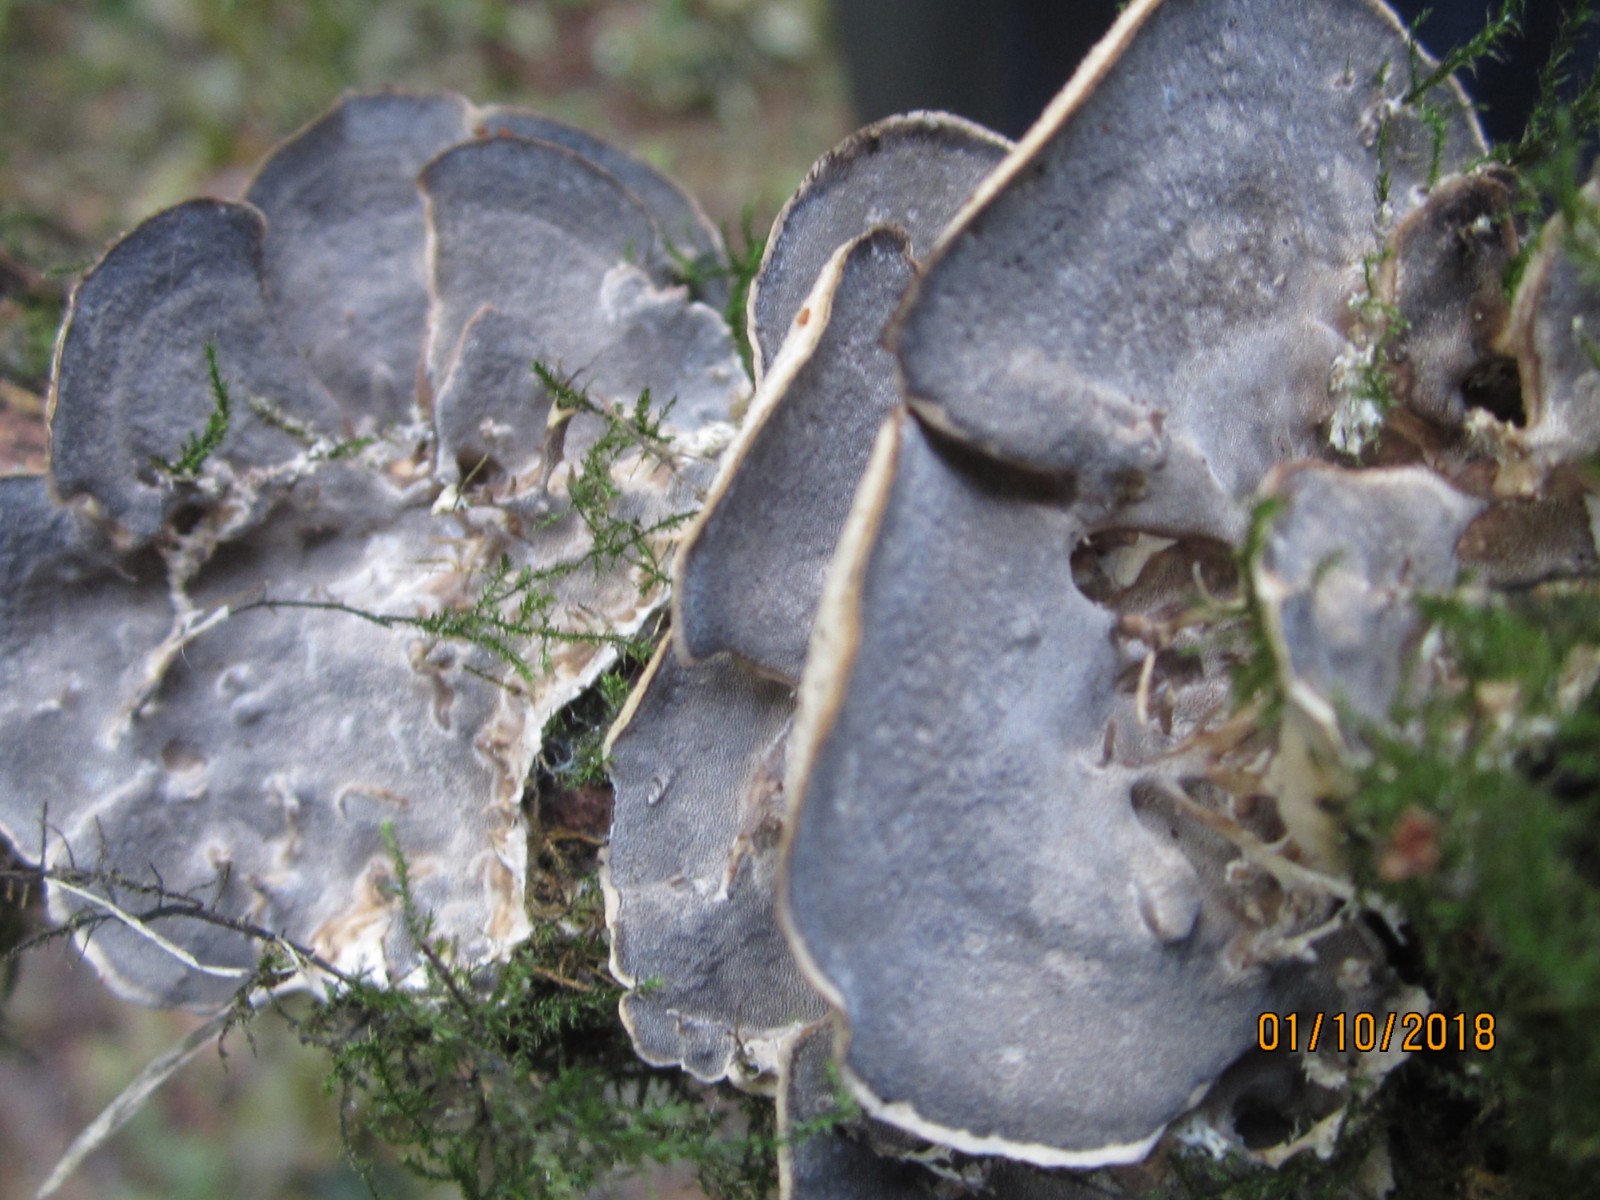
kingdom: Fungi
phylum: Basidiomycota
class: Agaricomycetes
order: Polyporales
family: Phanerochaetaceae
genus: Bjerkandera
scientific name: Bjerkandera adusta
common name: sveden sodporesvamp
